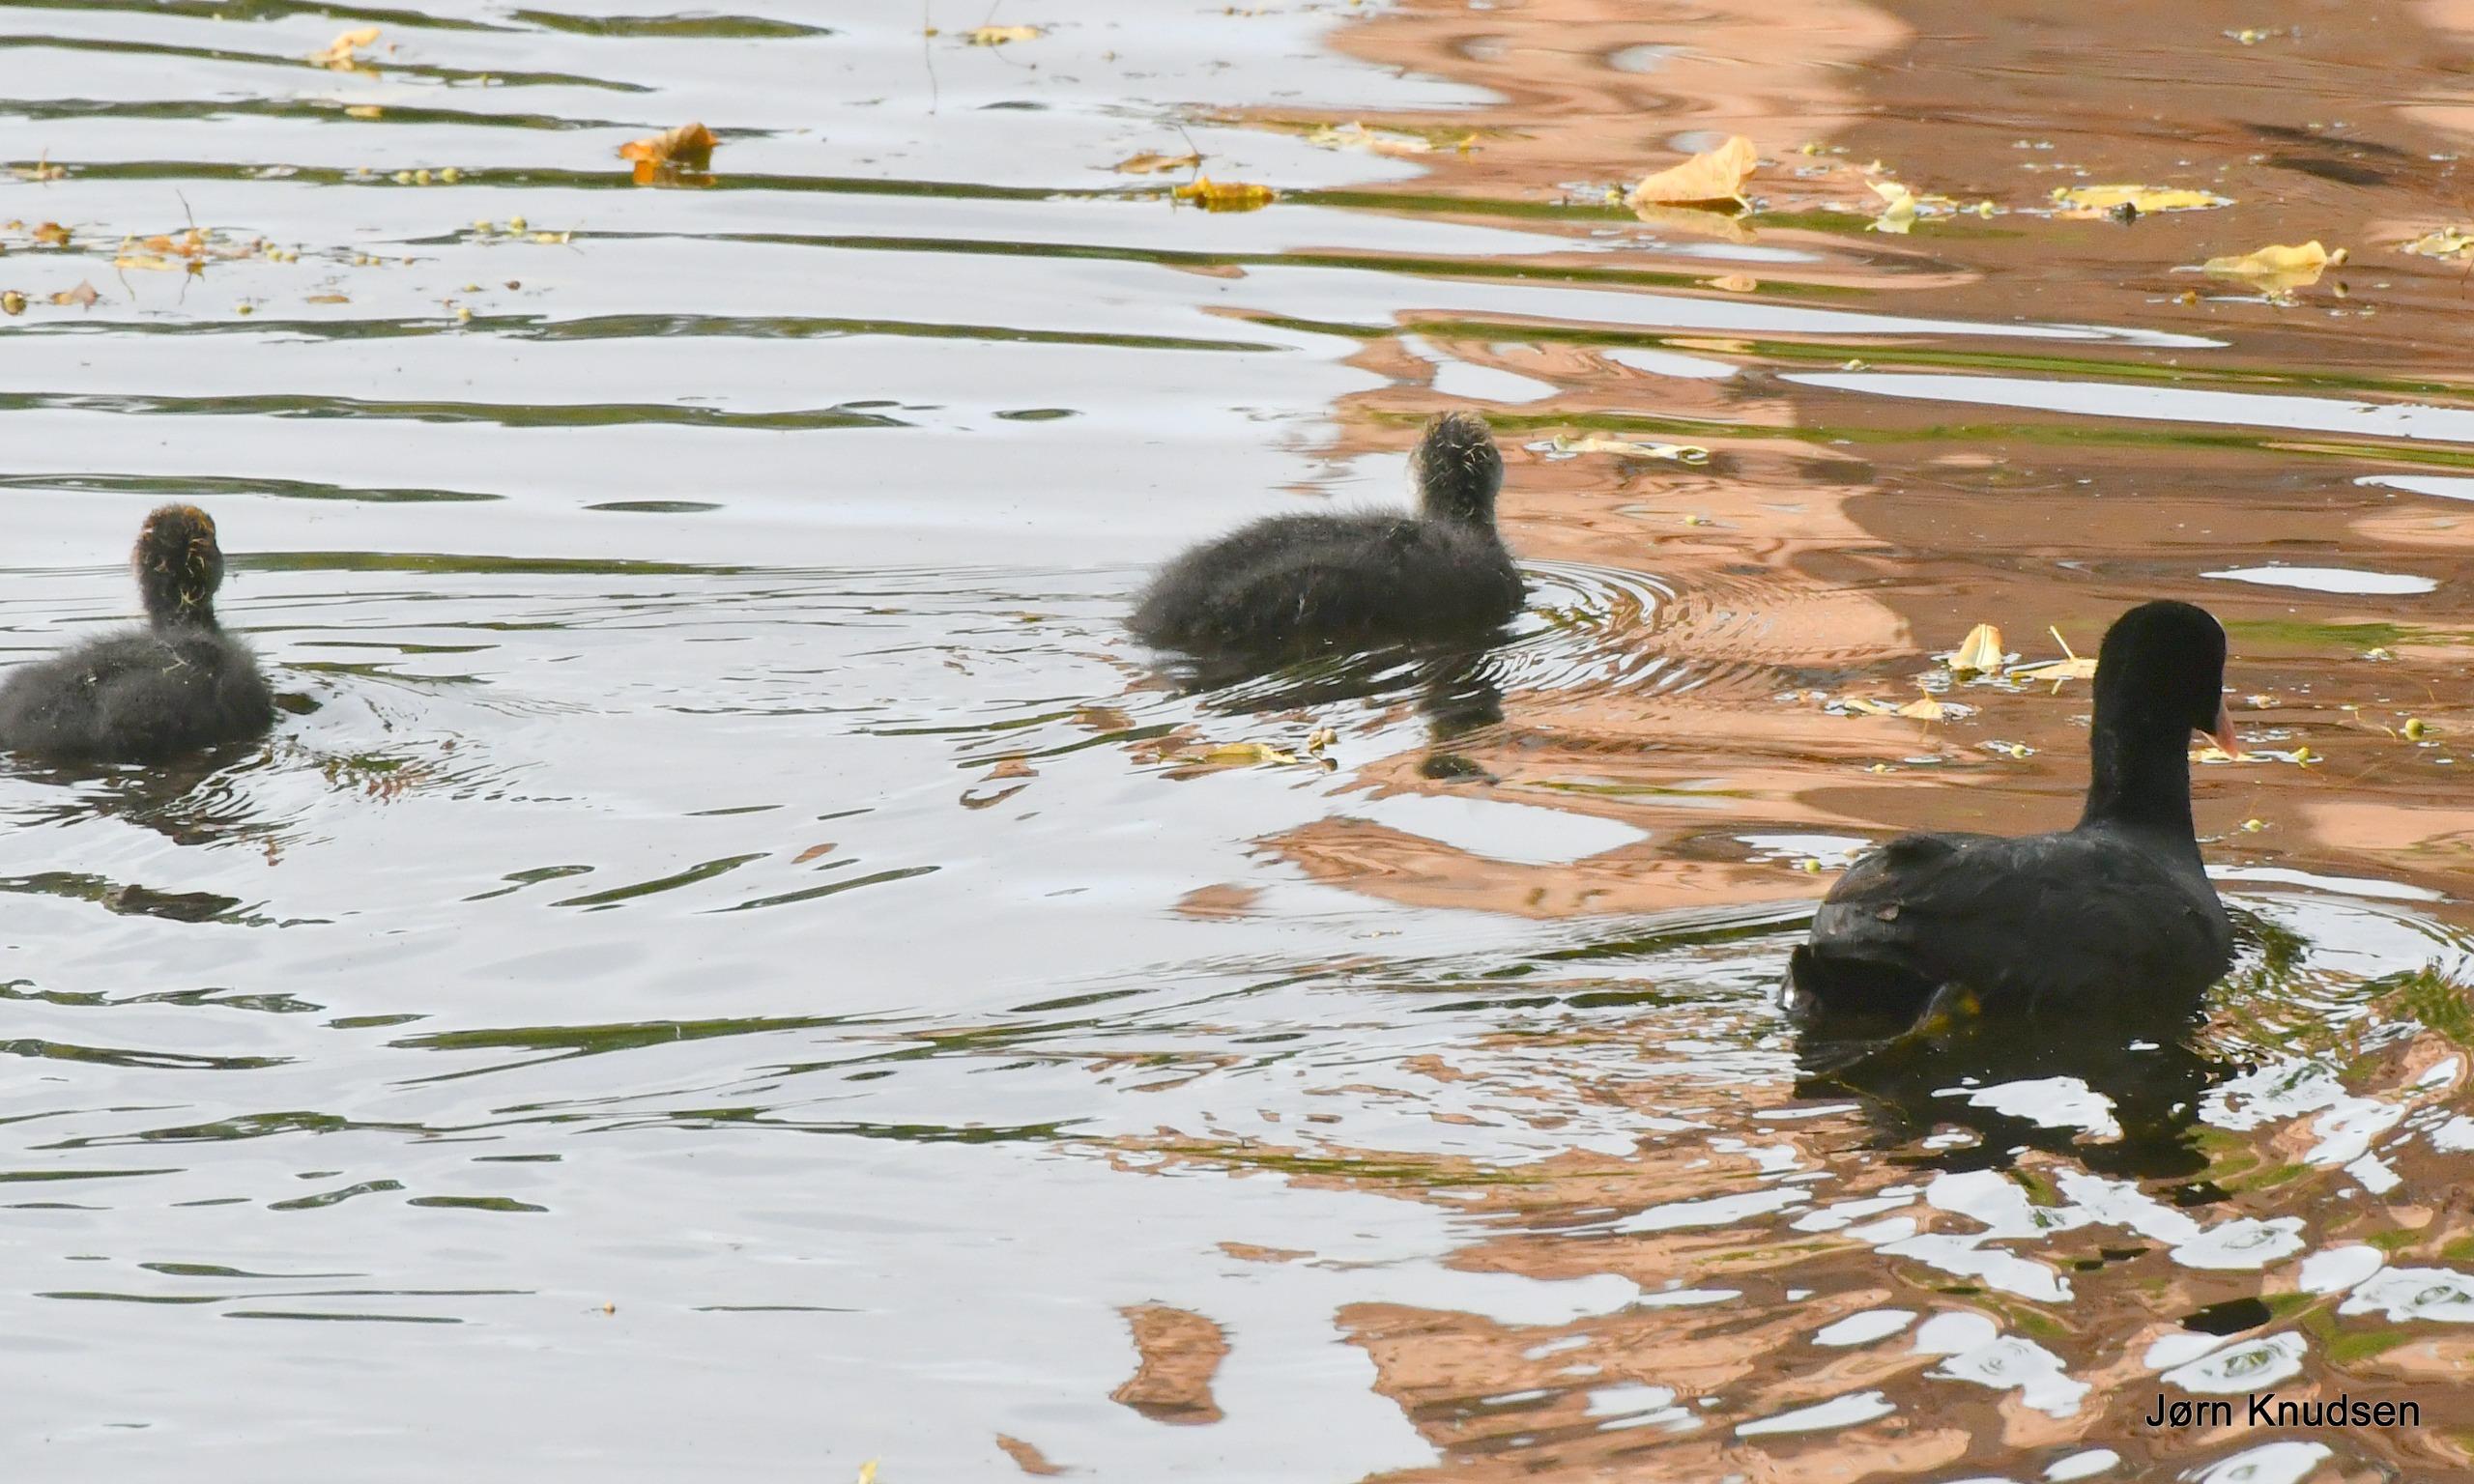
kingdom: Animalia
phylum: Chordata
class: Aves
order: Gruiformes
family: Rallidae
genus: Fulica
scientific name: Fulica atra
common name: Blishøne
